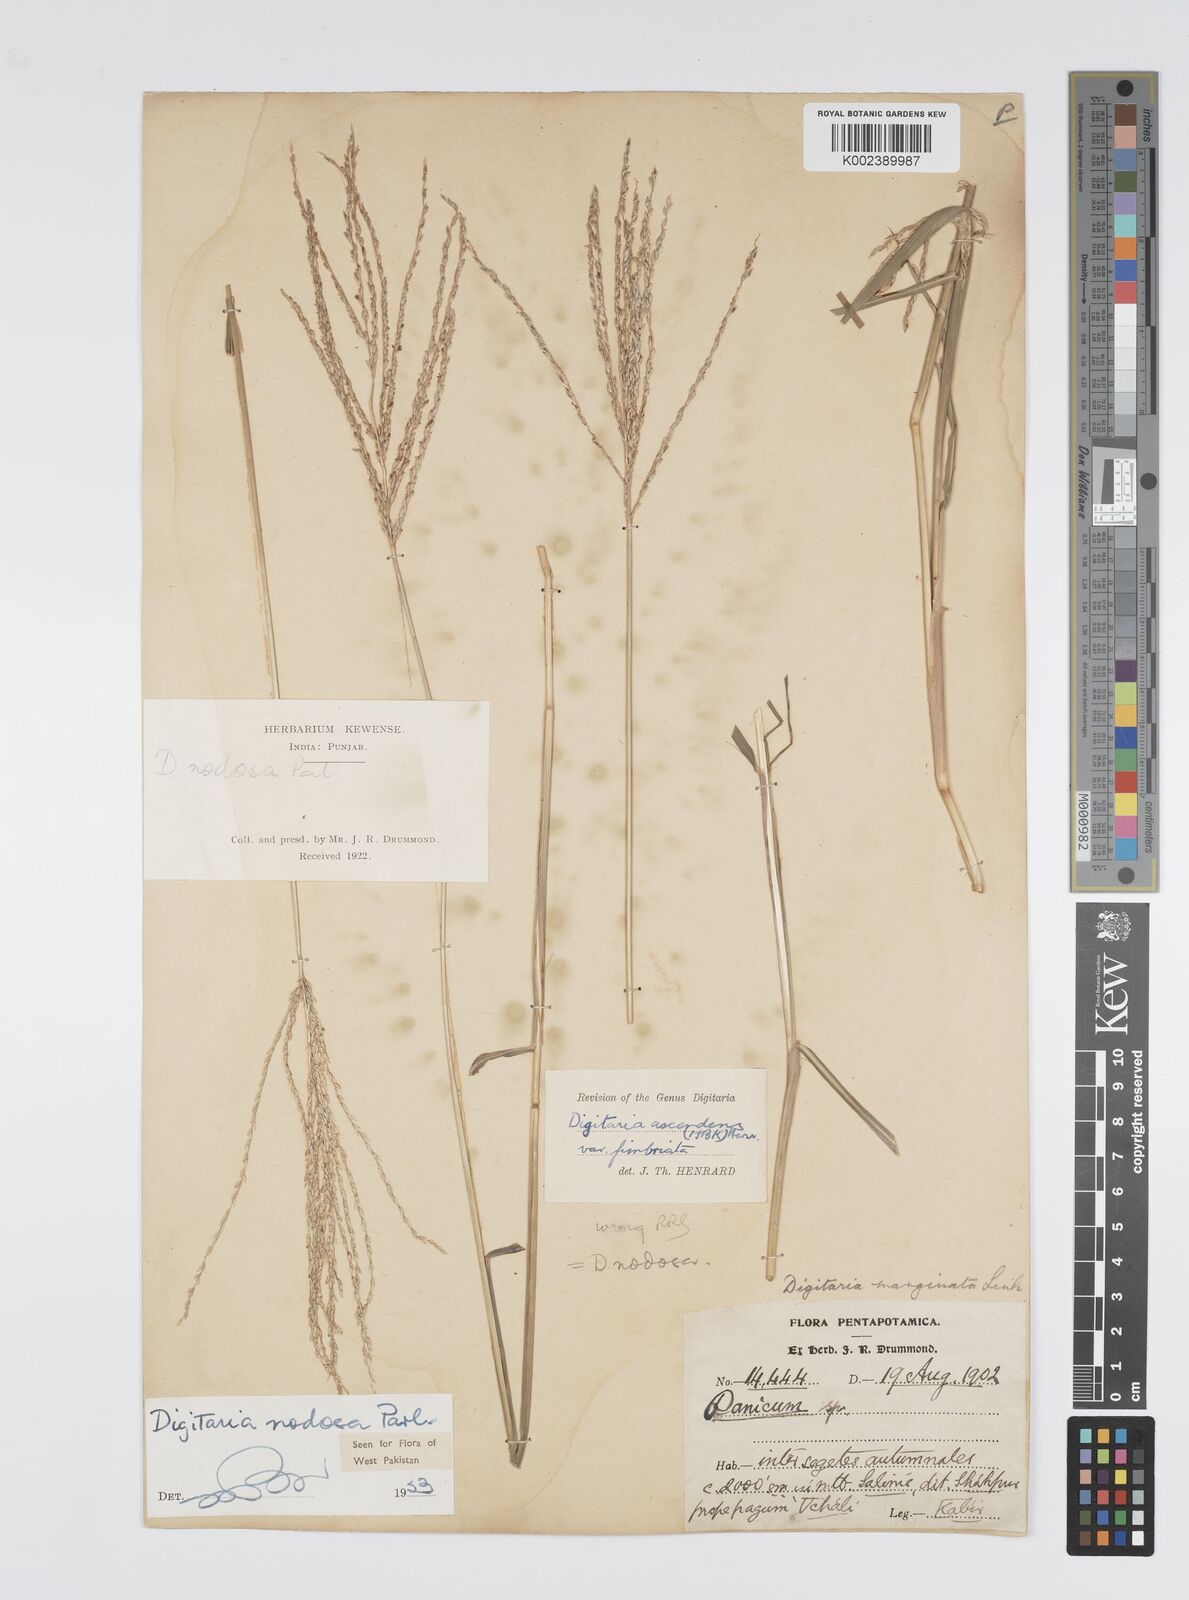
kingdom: Plantae
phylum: Tracheophyta
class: Liliopsida
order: Poales
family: Poaceae
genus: Digitaria
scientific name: Digitaria nodosa
